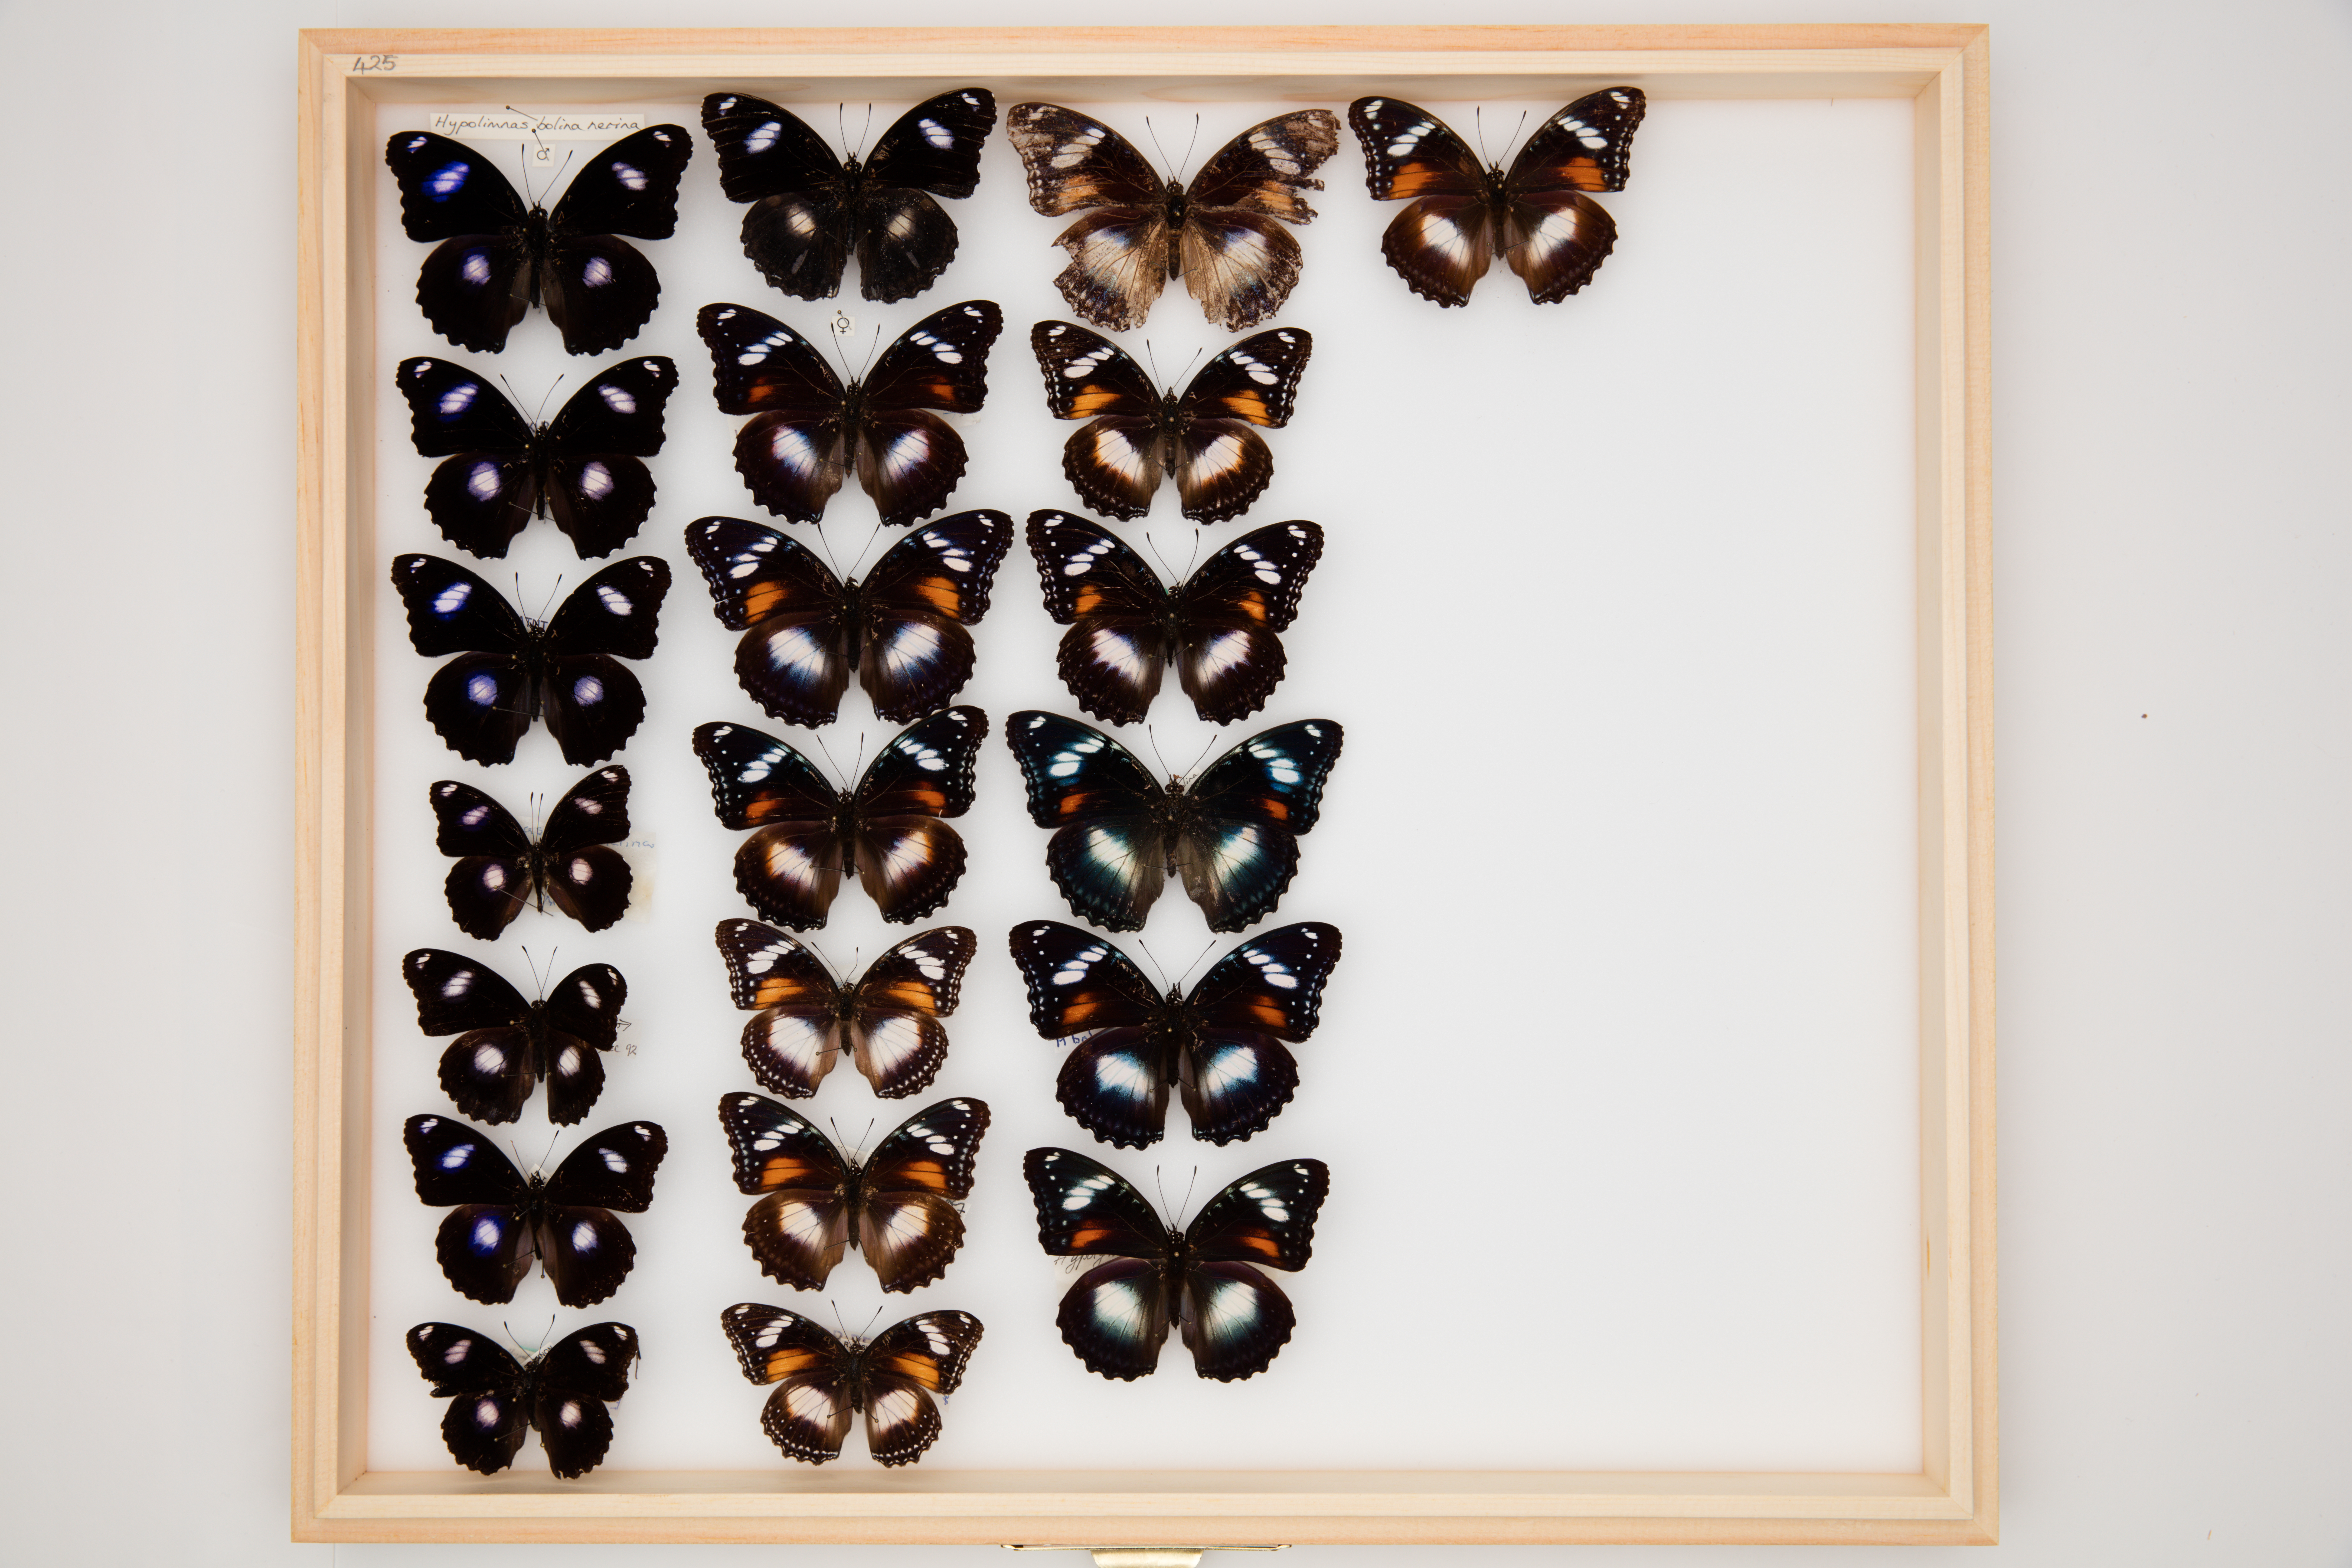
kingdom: Animalia
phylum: Arthropoda
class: Insecta
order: Lepidoptera
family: Nymphalidae
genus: Hypolimnas
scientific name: Hypolimnas bolina
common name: Great eggfly
